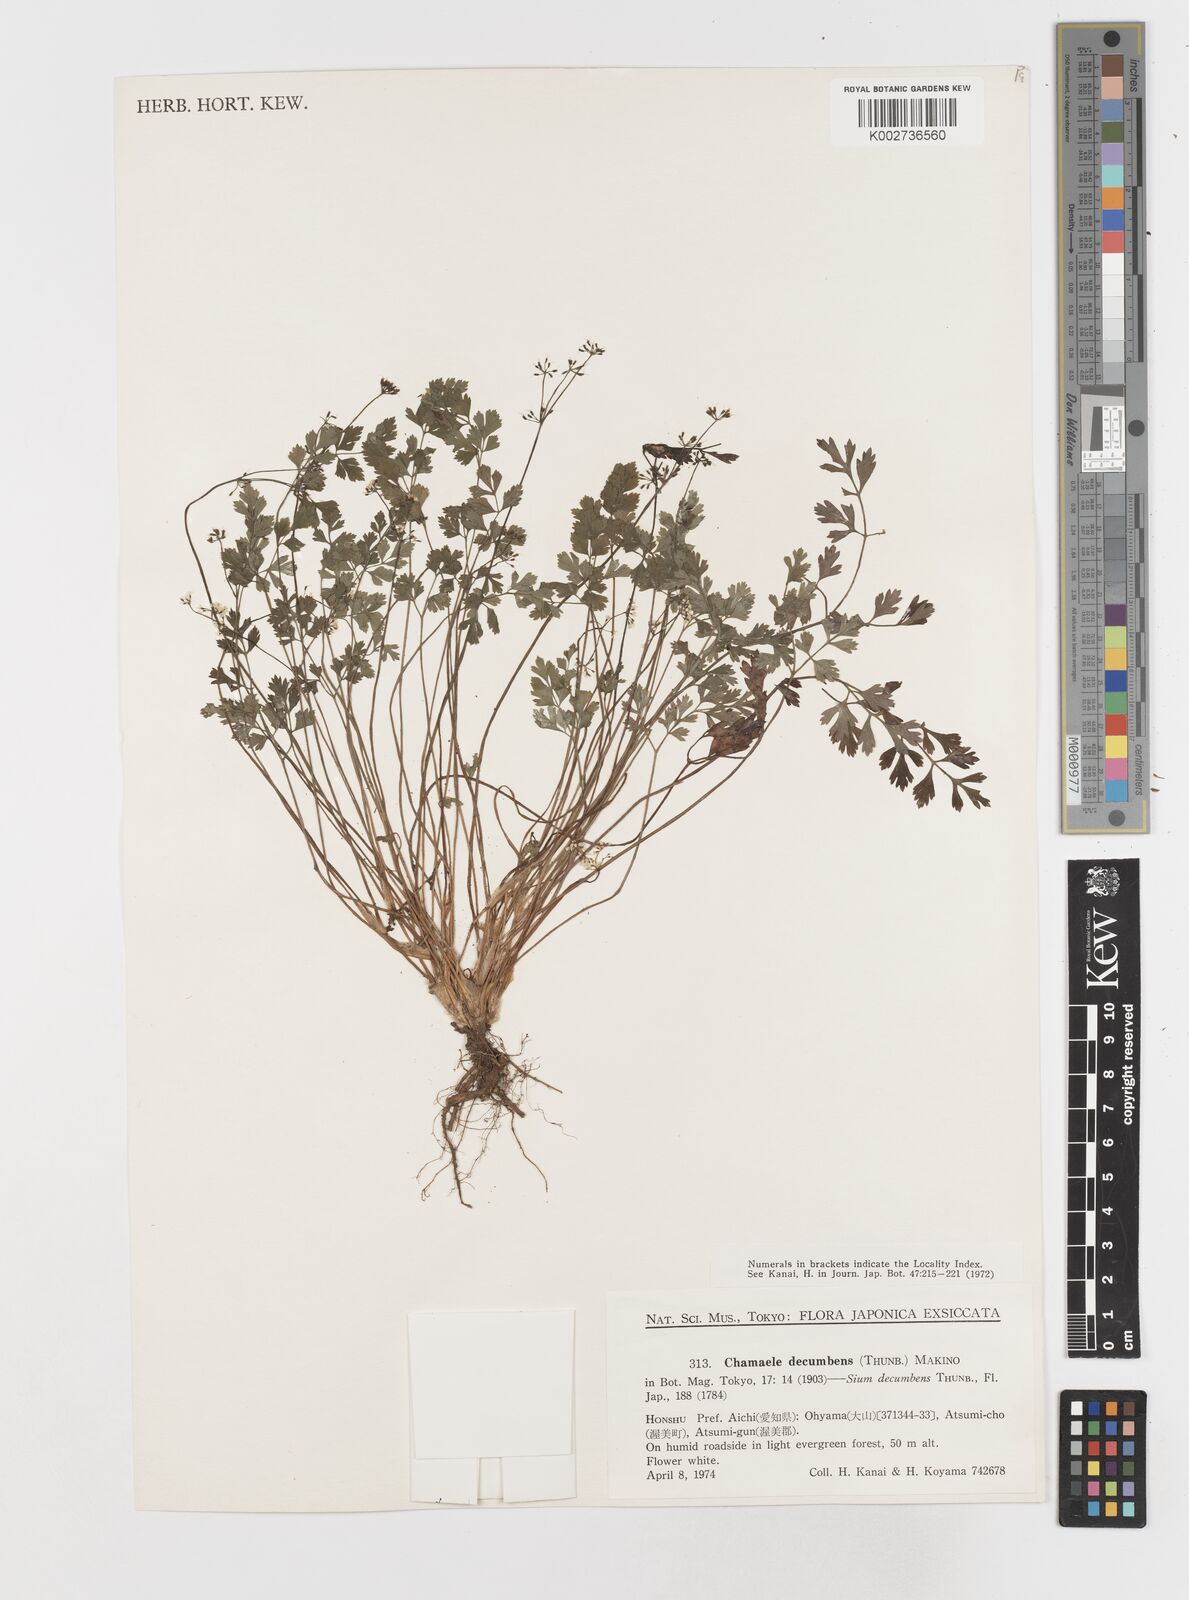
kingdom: Plantae
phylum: Tracheophyta
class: Magnoliopsida
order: Apiales
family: Apiaceae
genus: Aegopodium
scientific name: Aegopodium decumbens
